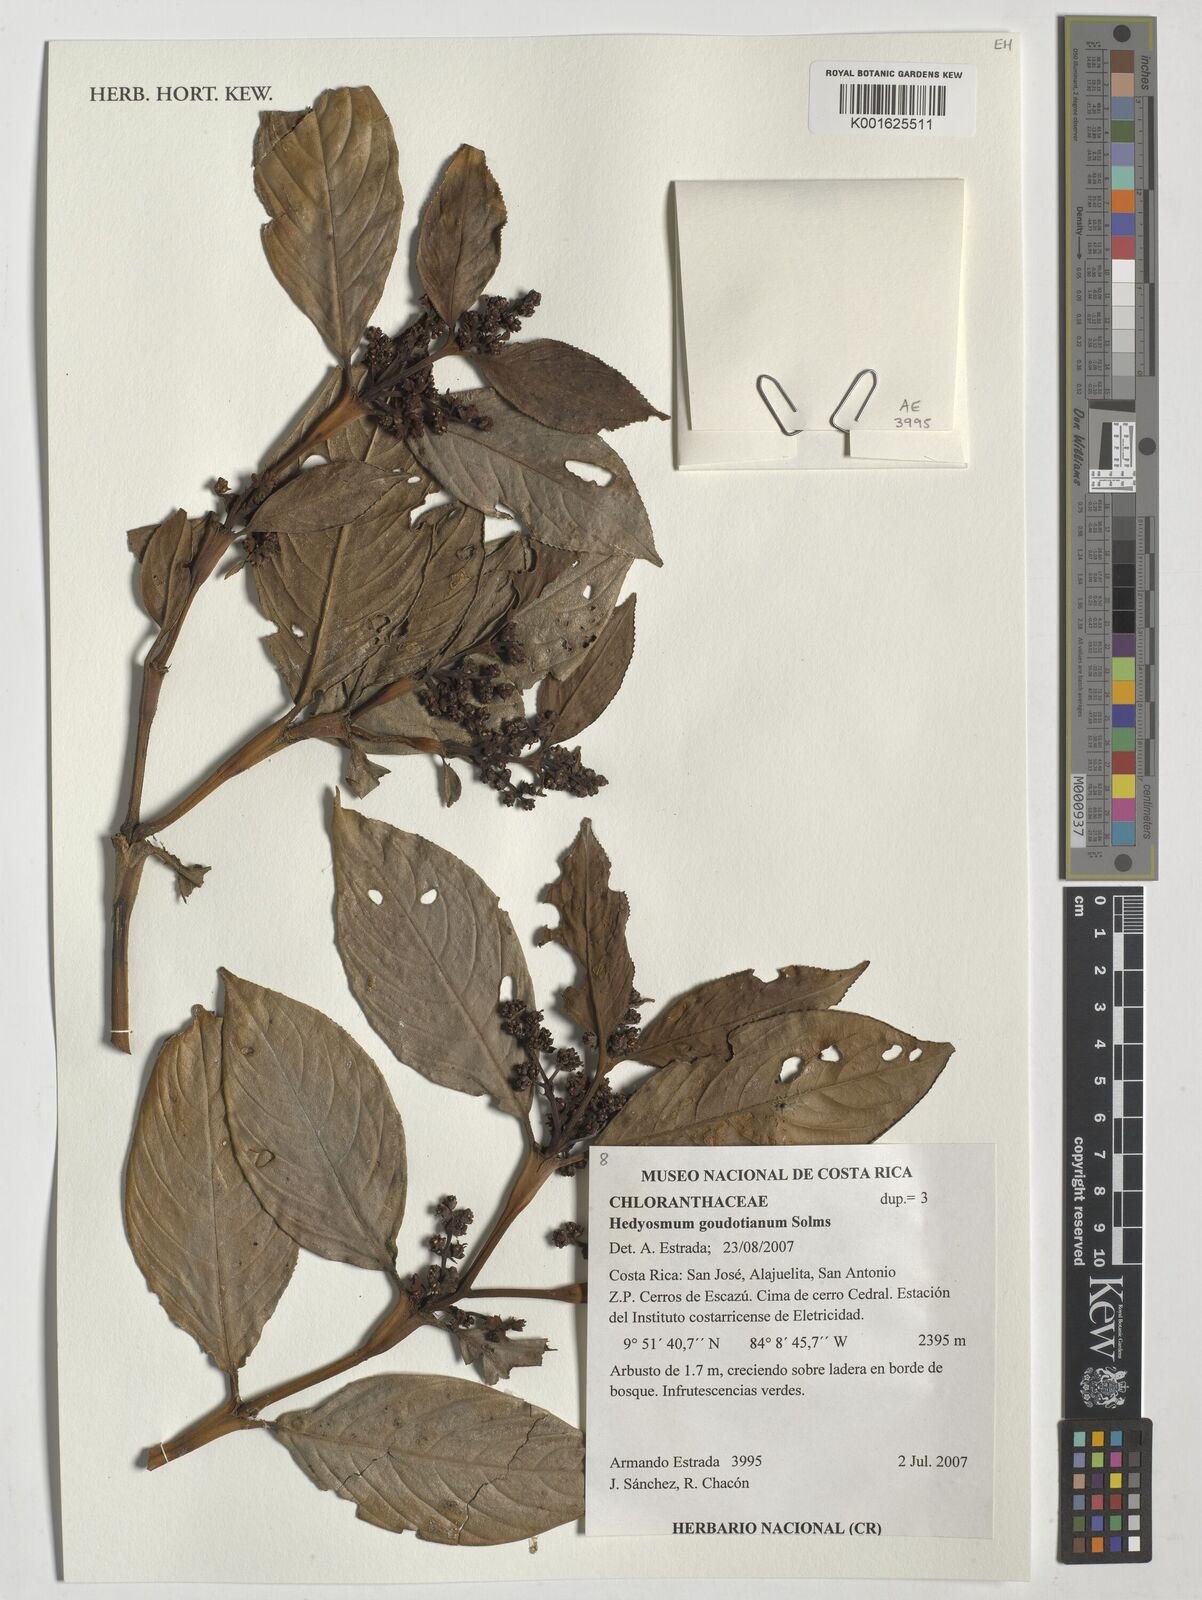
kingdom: Plantae
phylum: Tracheophyta
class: Magnoliopsida
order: Chloranthales
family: Chloranthaceae
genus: Hedyosmum
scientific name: Hedyosmum goudotianum
